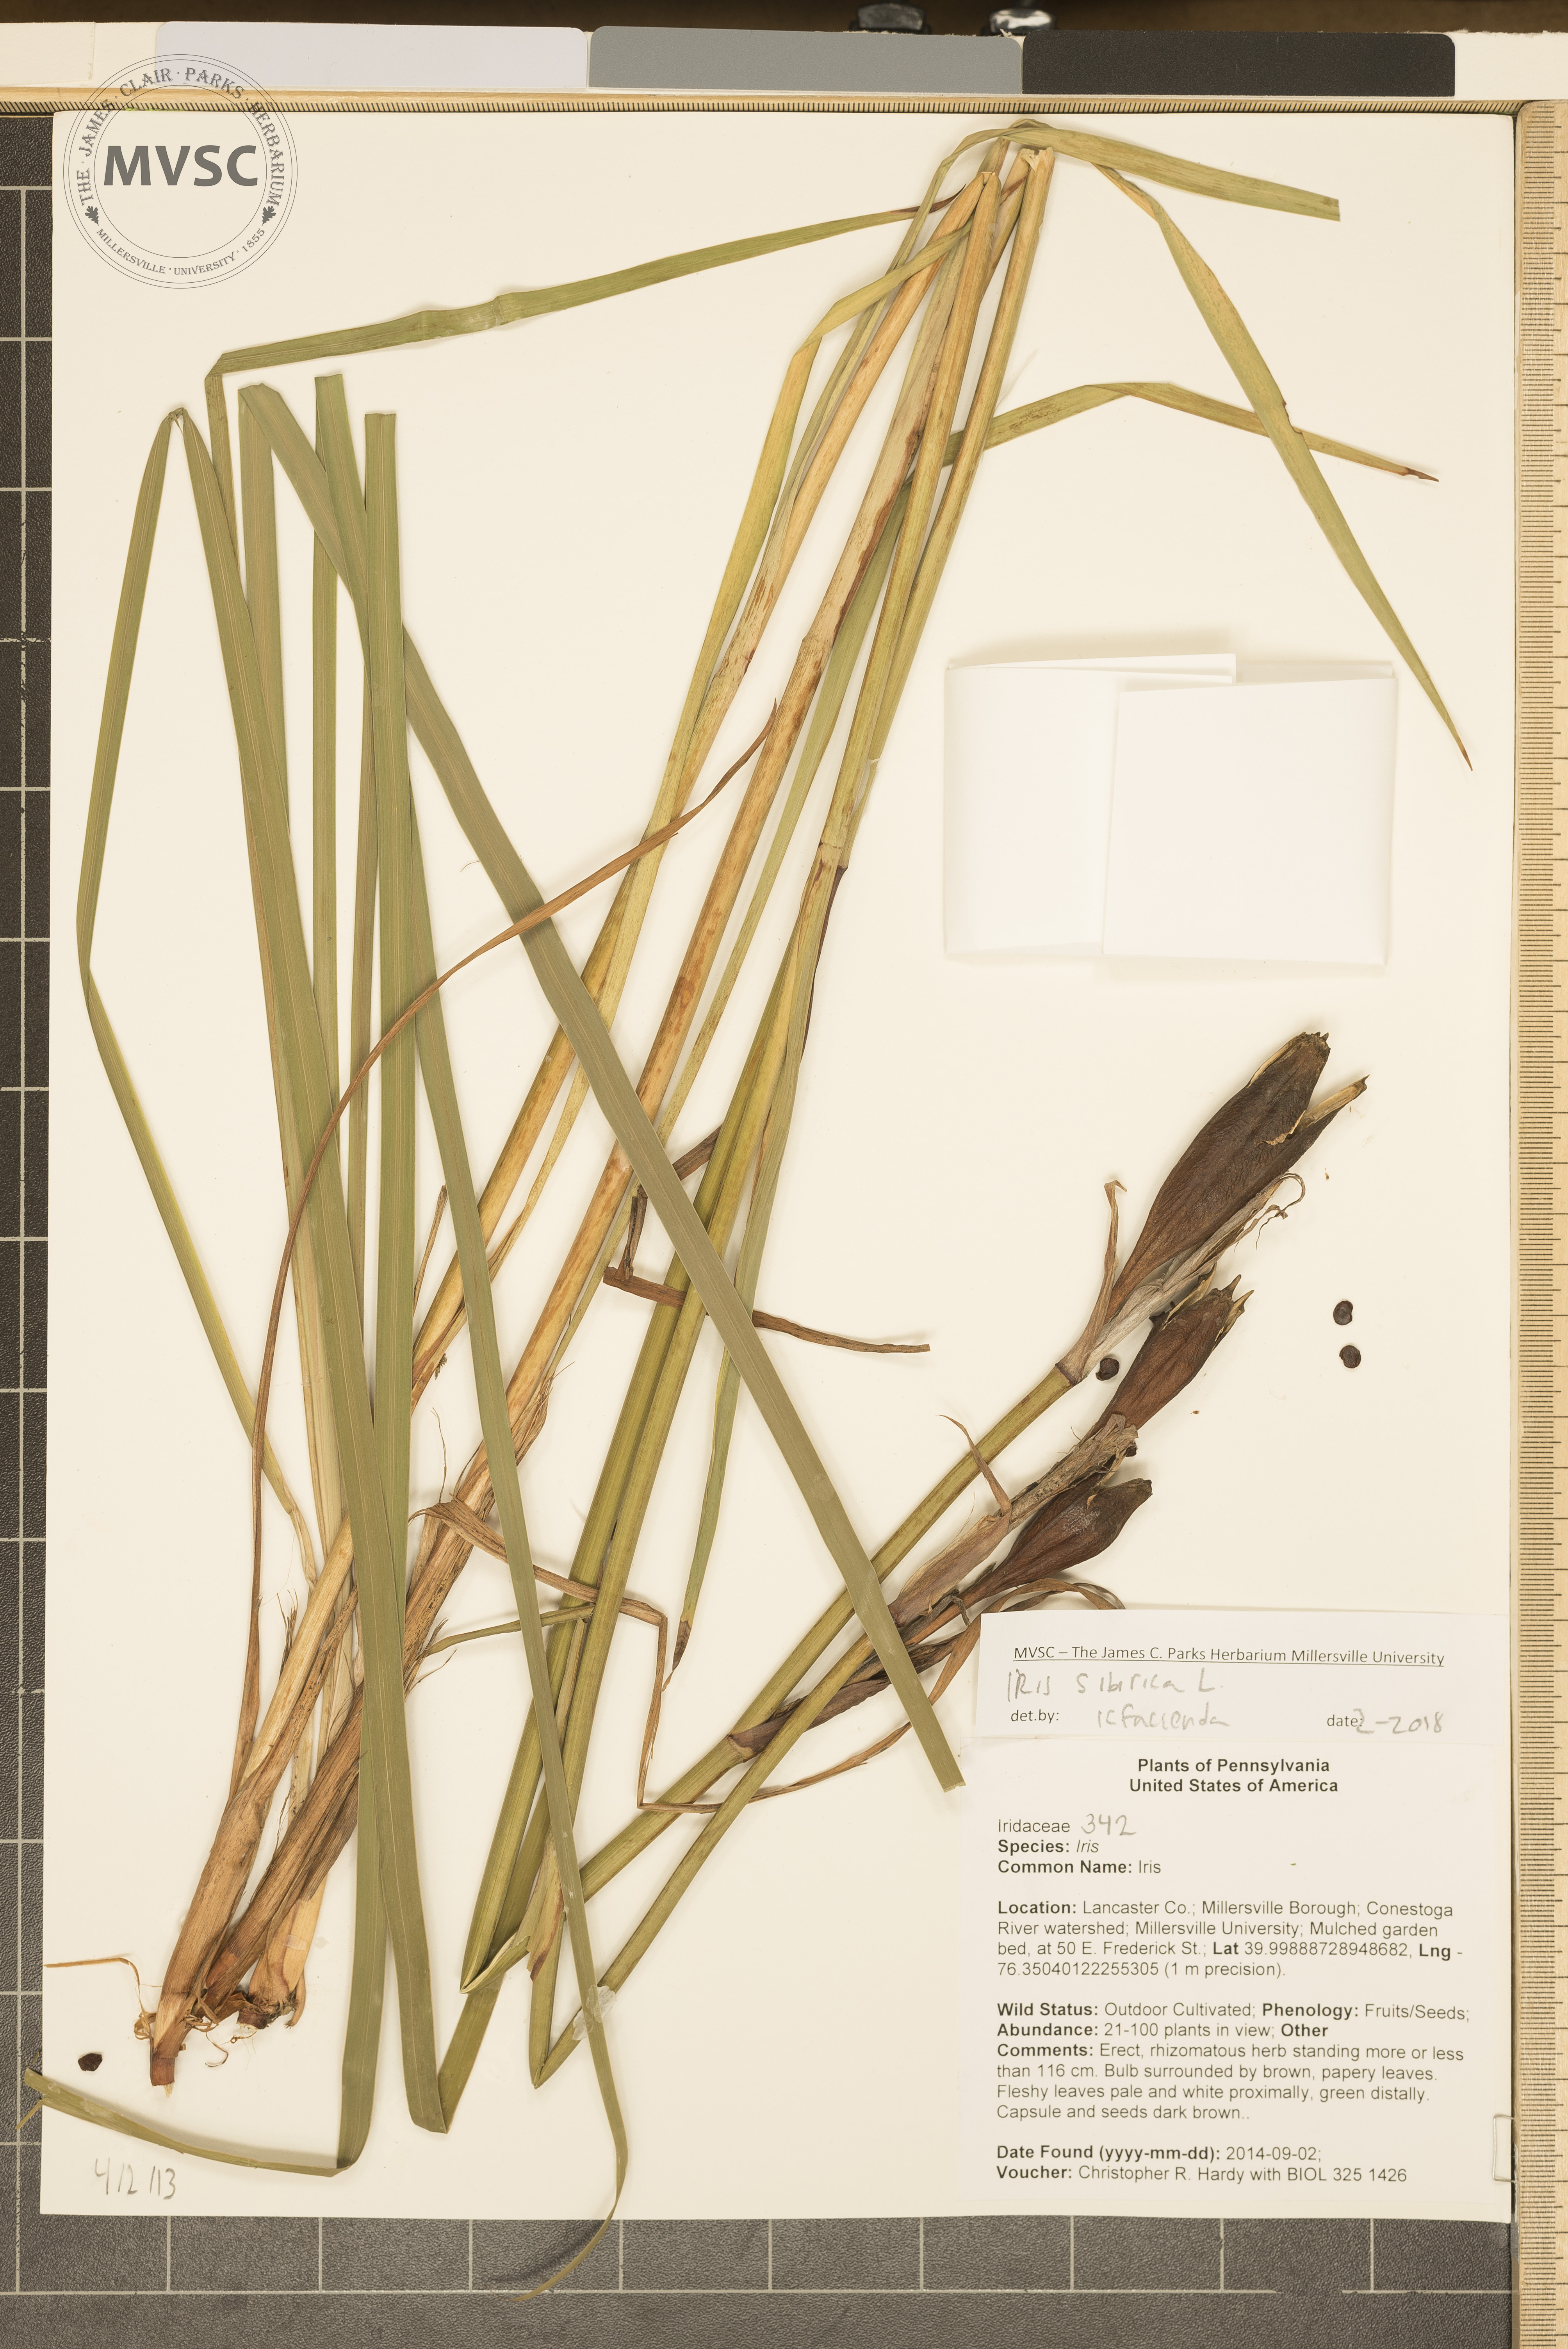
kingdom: Plantae
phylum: Tracheophyta
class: Liliopsida
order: Asparagales
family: Iridaceae
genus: Iris
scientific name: Iris sibirica
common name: Iris
